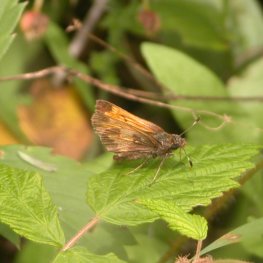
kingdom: Animalia
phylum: Arthropoda
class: Insecta
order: Lepidoptera
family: Hesperiidae
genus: Lon
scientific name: Lon hobomok
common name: Hobomok Skipper
